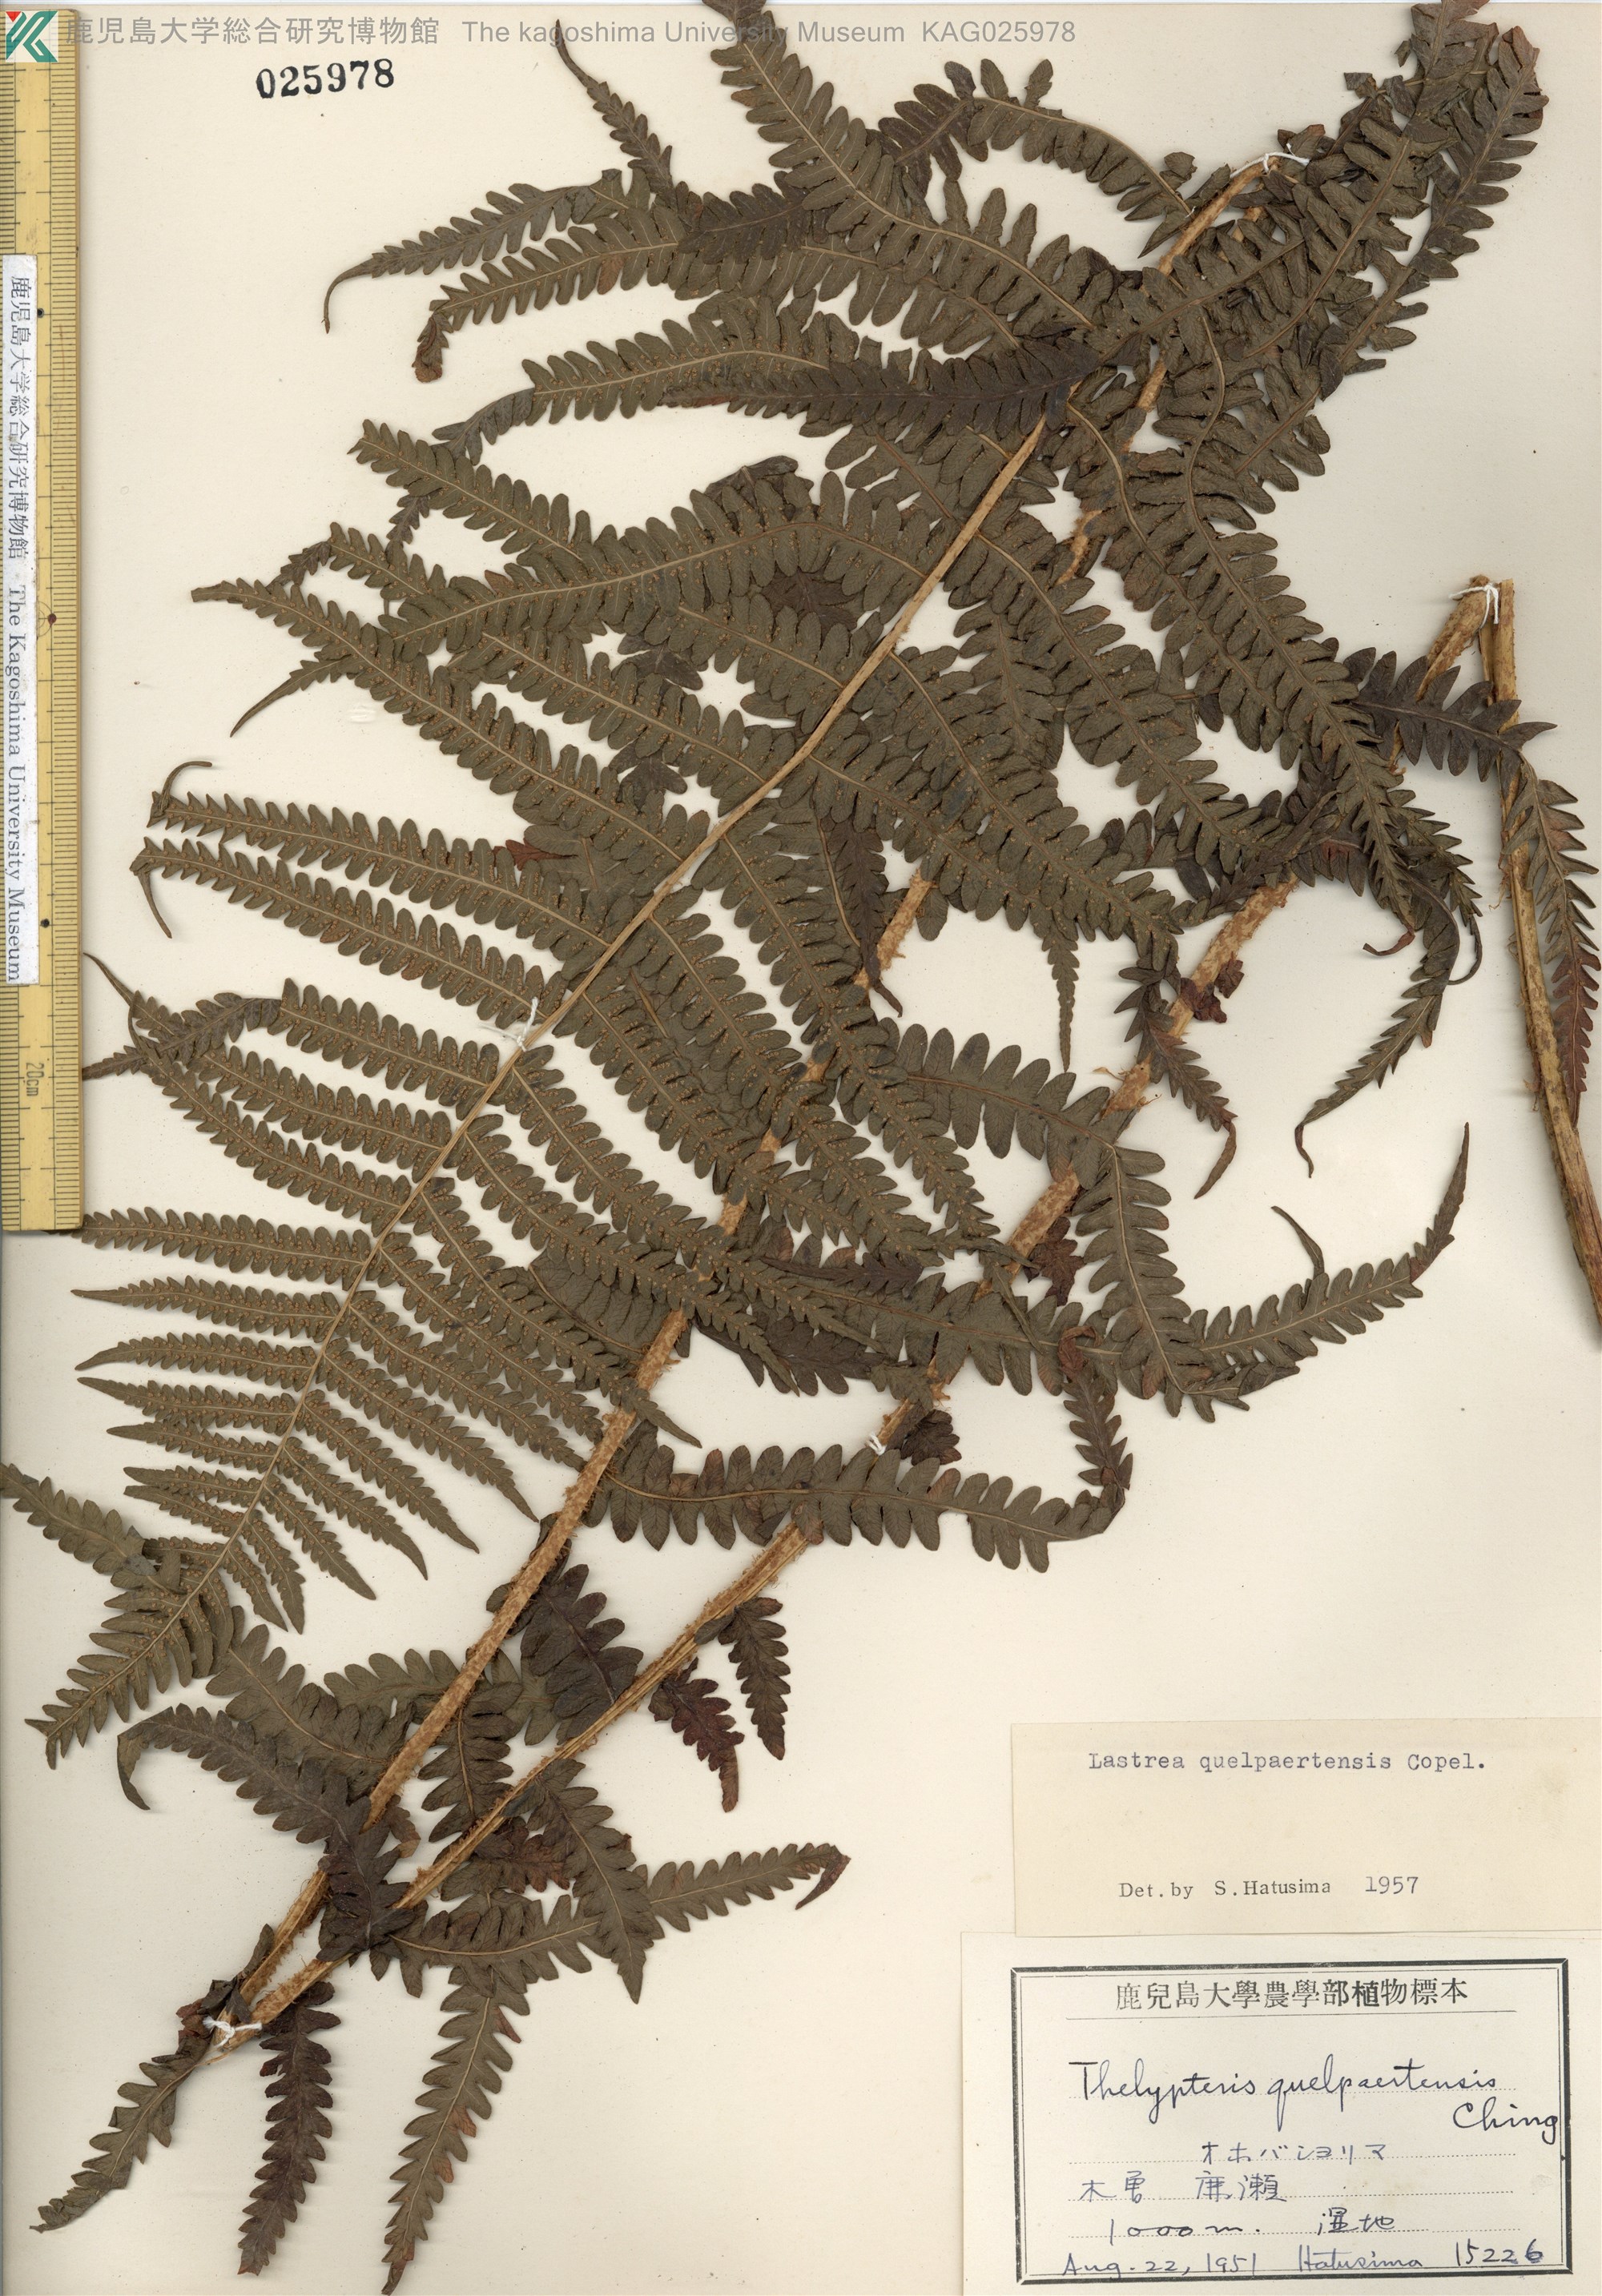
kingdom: Plantae
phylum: Tracheophyta
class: Polypodiopsida
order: Polypodiales
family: Thelypteridaceae
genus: Oreopteris
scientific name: Oreopteris quelpartensis
